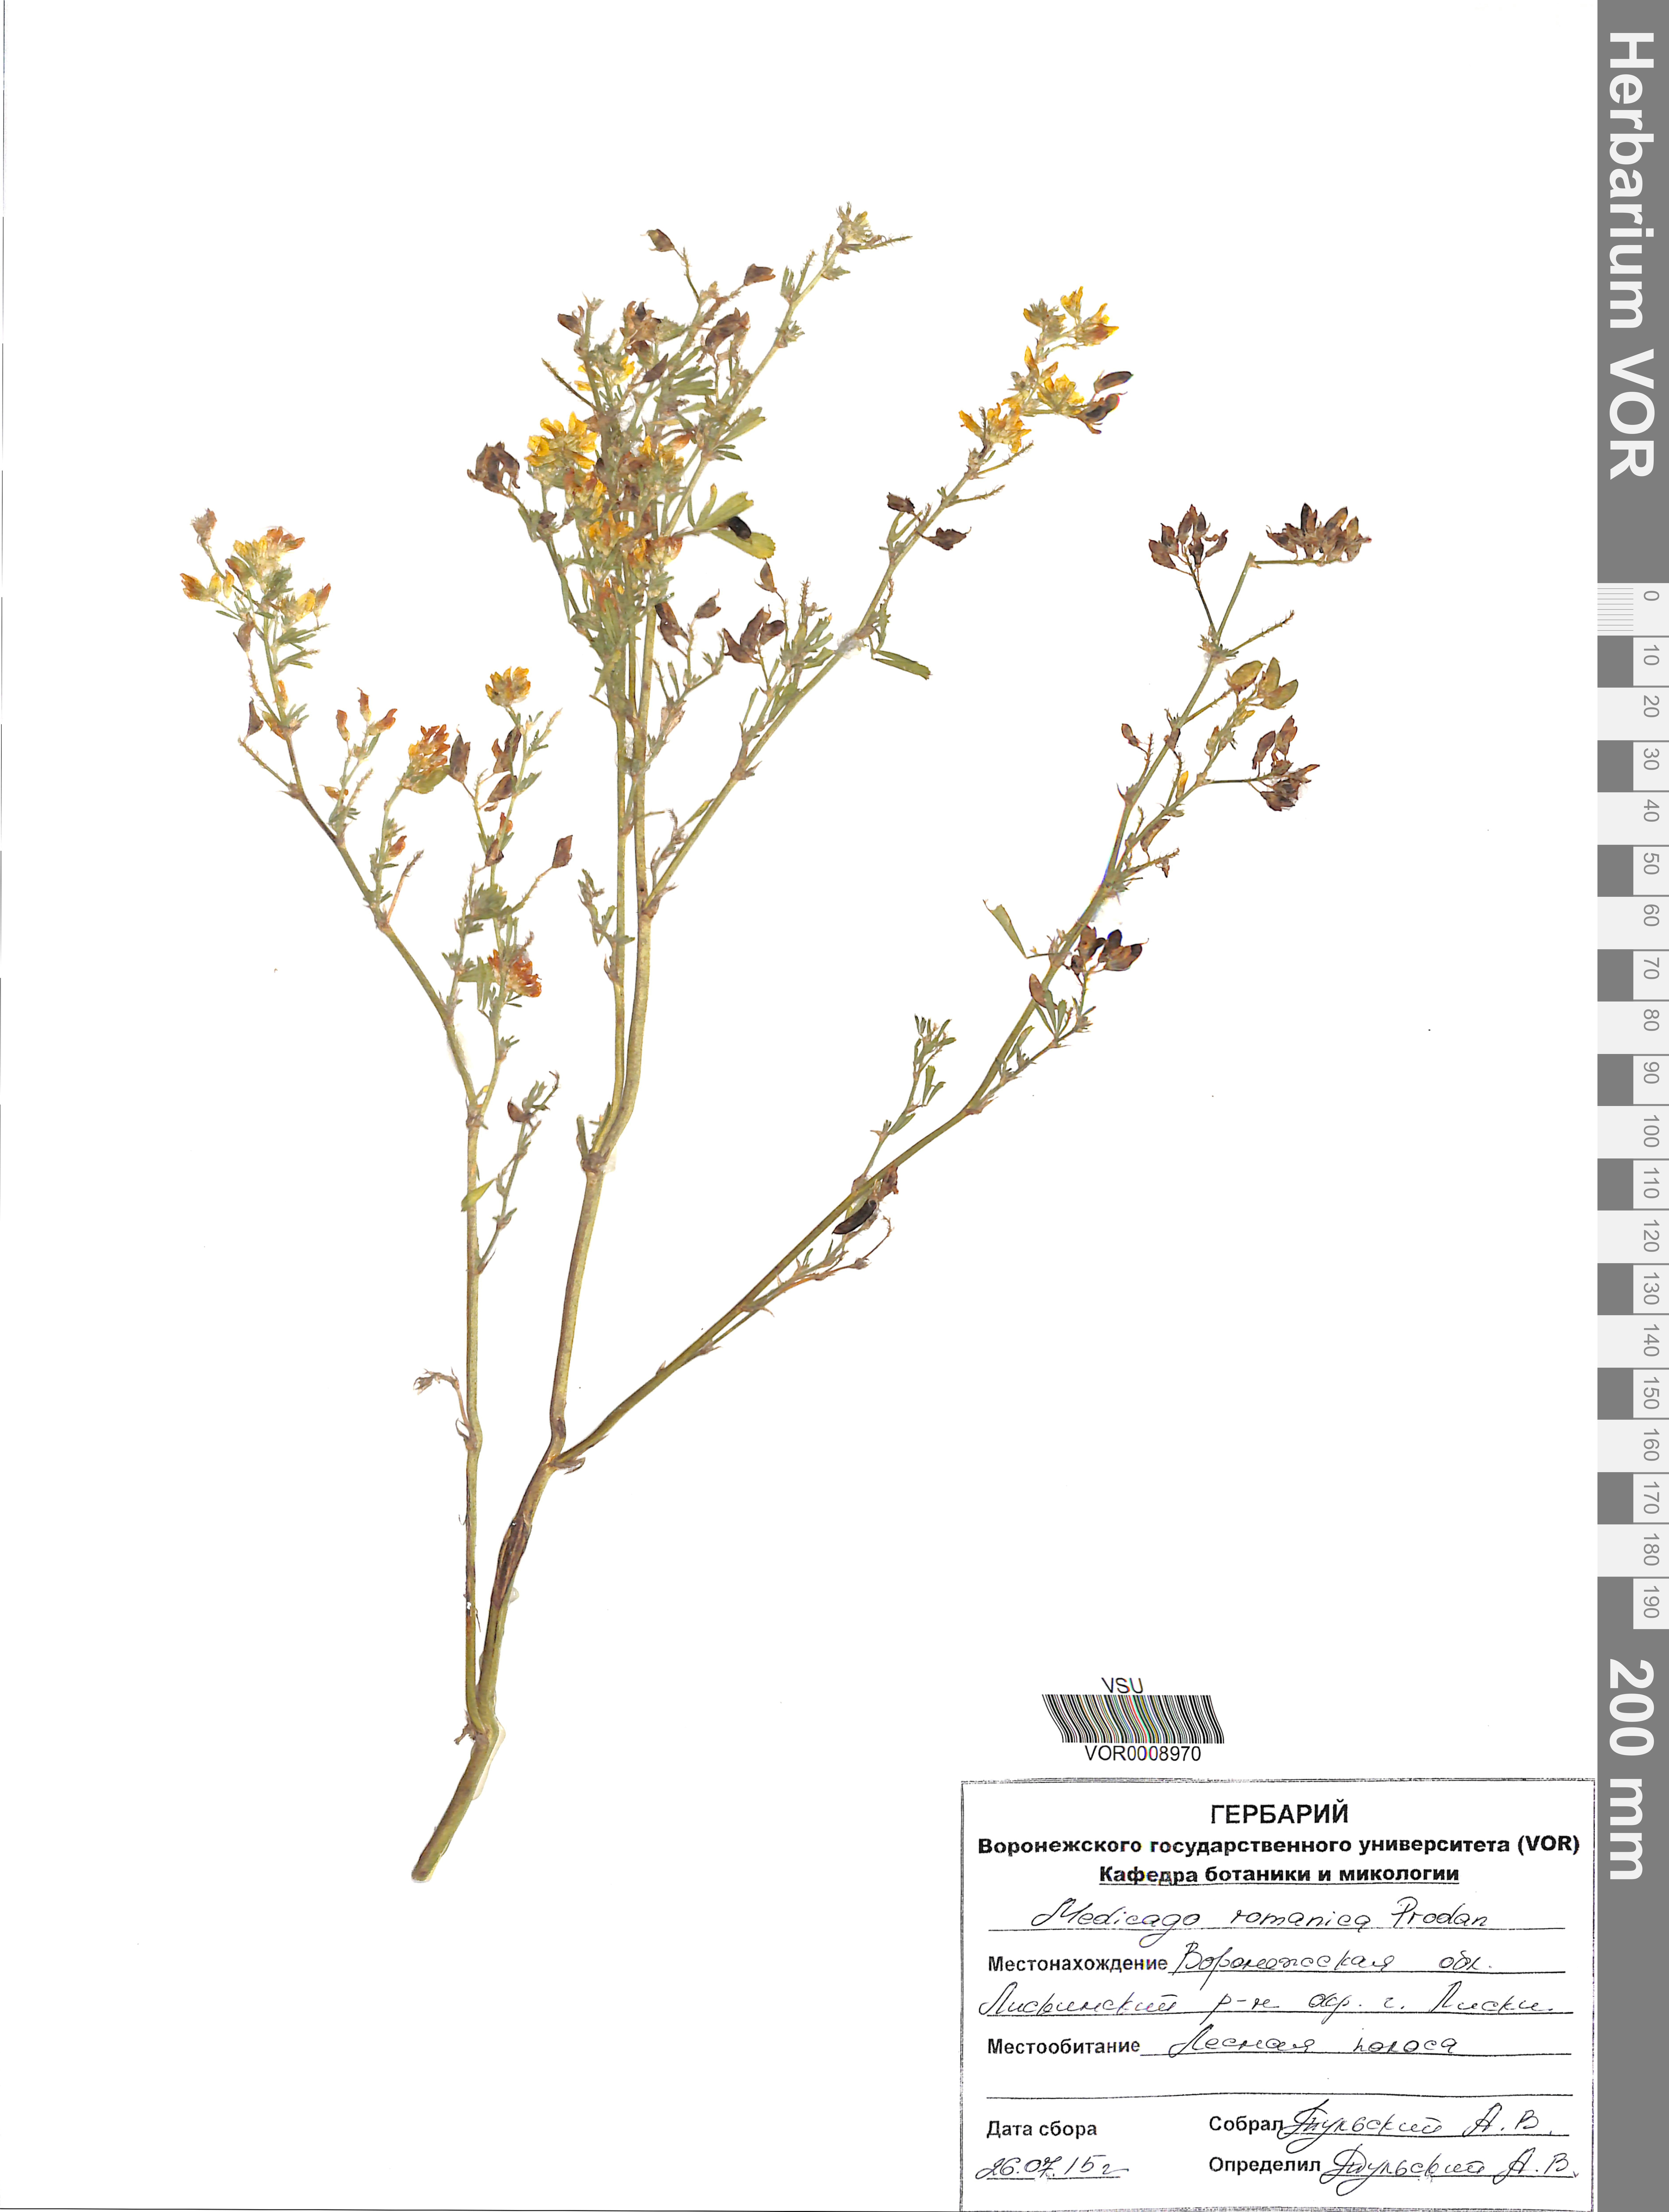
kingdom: Plantae
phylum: Tracheophyta
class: Magnoliopsida
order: Fabales
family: Fabaceae
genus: Medicago
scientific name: Medicago falcata
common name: Sickle medick
